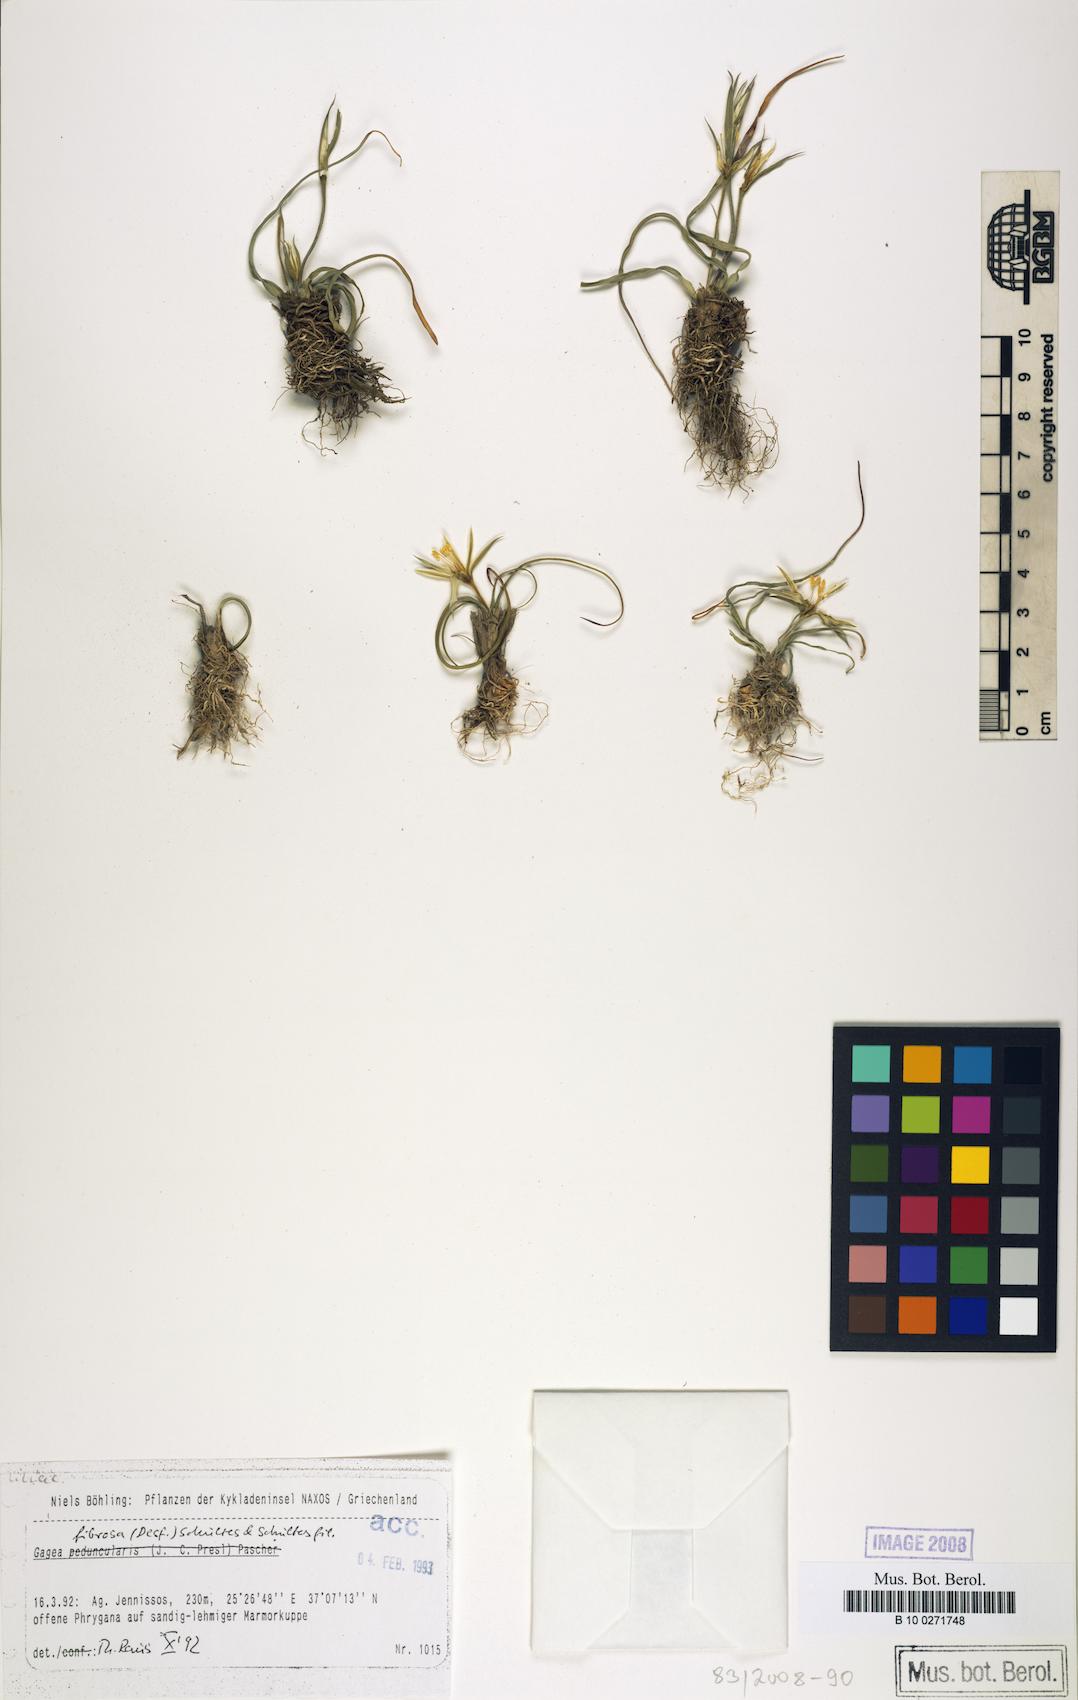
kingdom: Plantae
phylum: Tracheophyta
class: Liliopsida
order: Liliales
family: Liliaceae
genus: Gagea
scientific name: Gagea fibrosa
